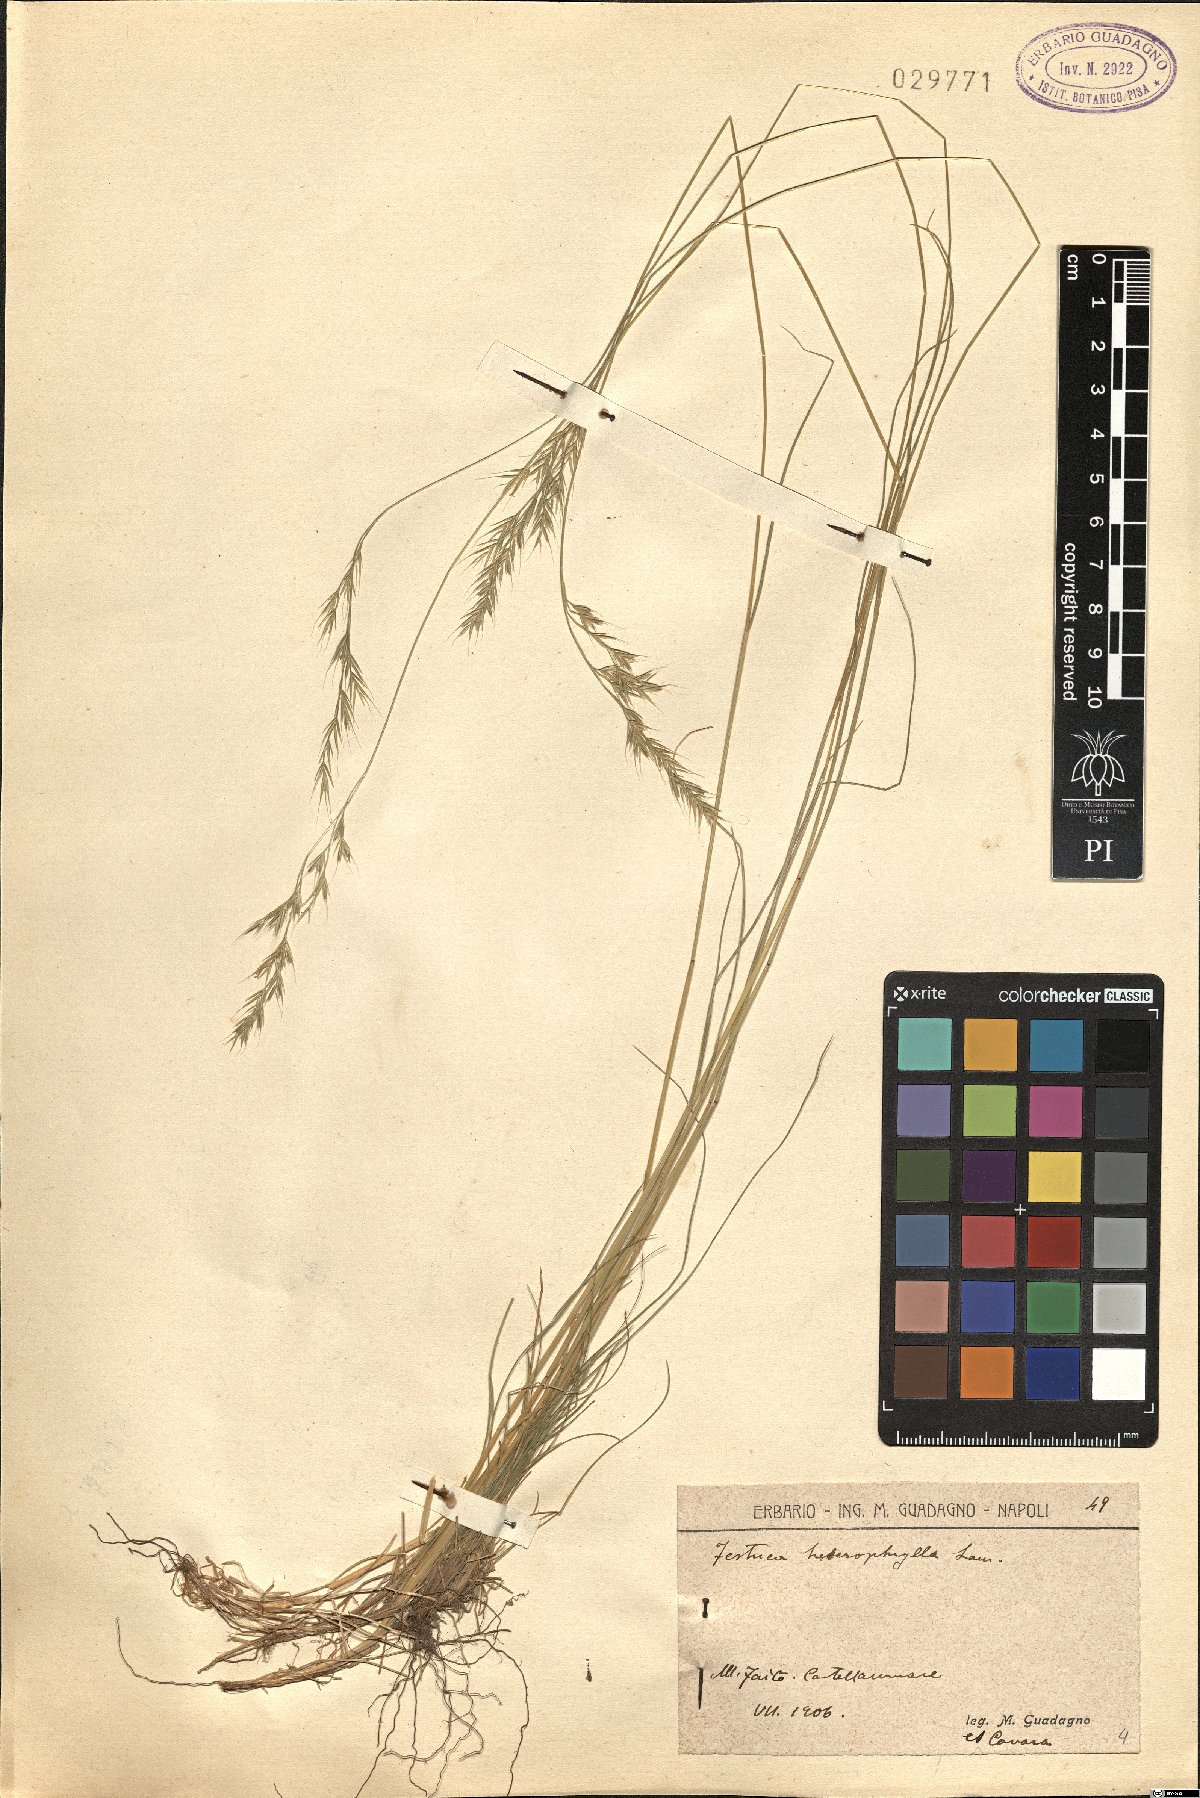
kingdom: Plantae
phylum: Tracheophyta
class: Liliopsida
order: Poales
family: Poaceae
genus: Festuca
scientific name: Festuca heterophylla
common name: Various-leaved fescue
